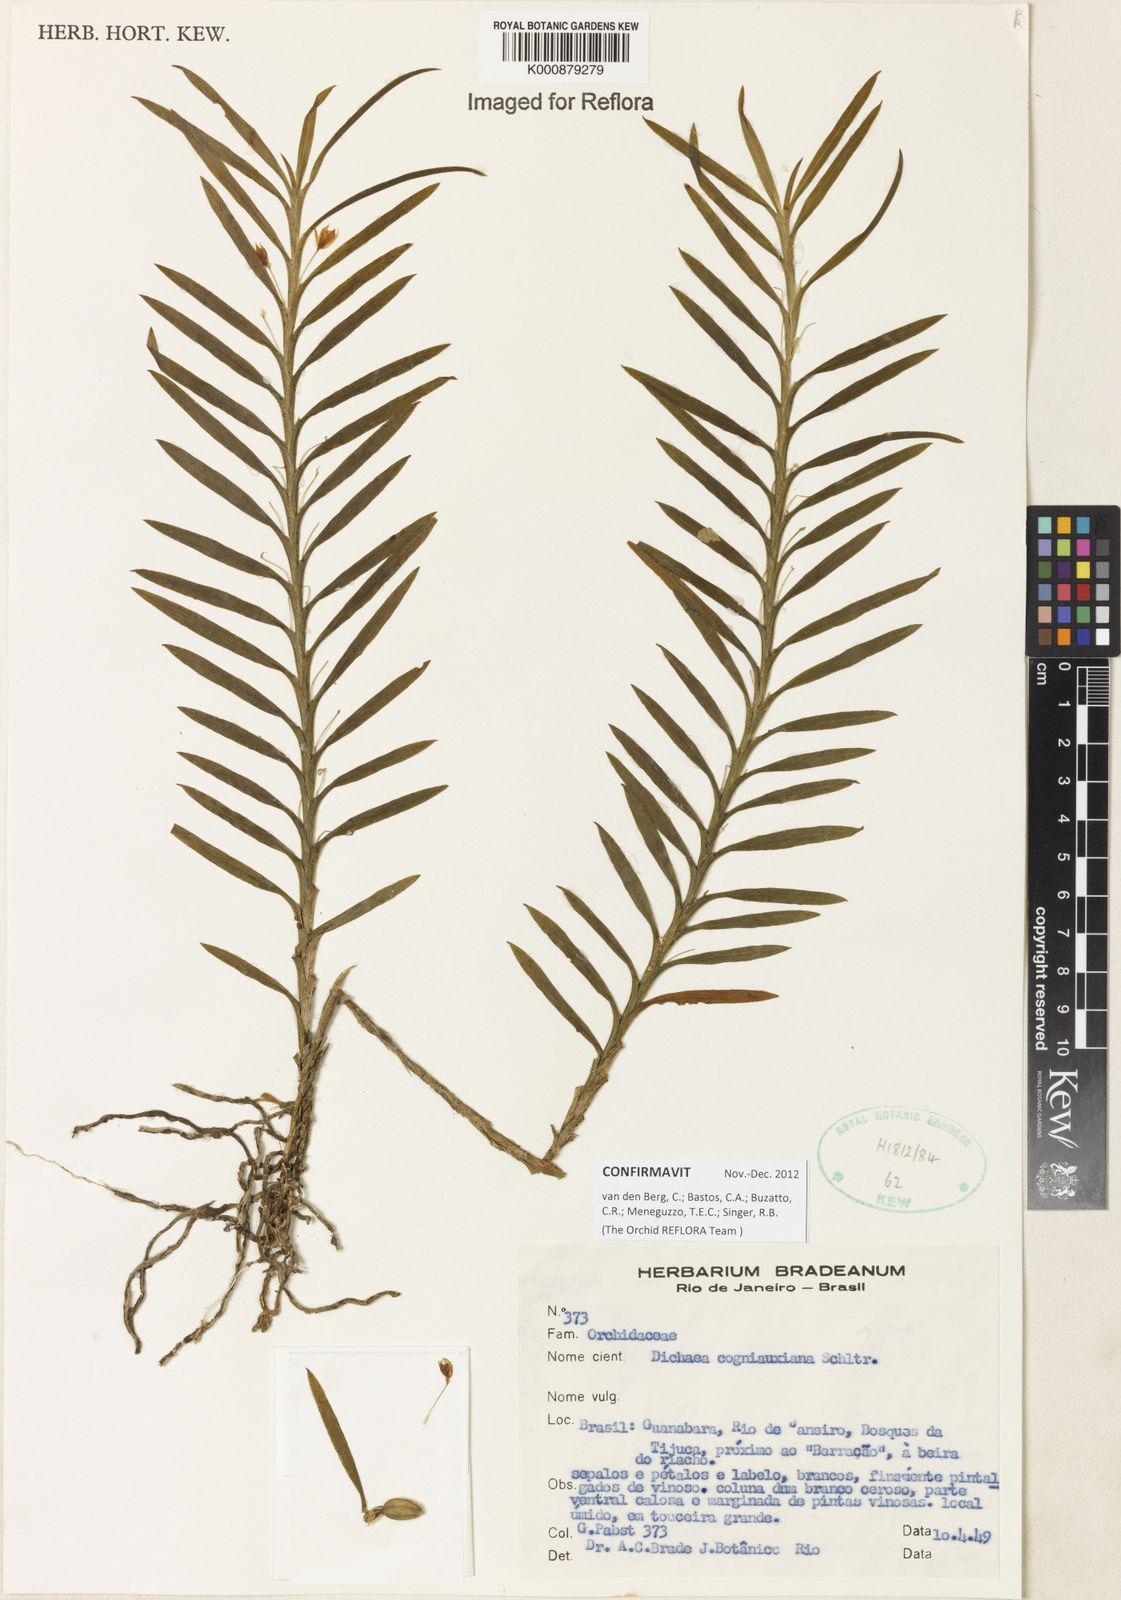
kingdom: Plantae
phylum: Tracheophyta
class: Liliopsida
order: Asparagales
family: Orchidaceae
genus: Dichaea
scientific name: Dichaea cogniauxiana
